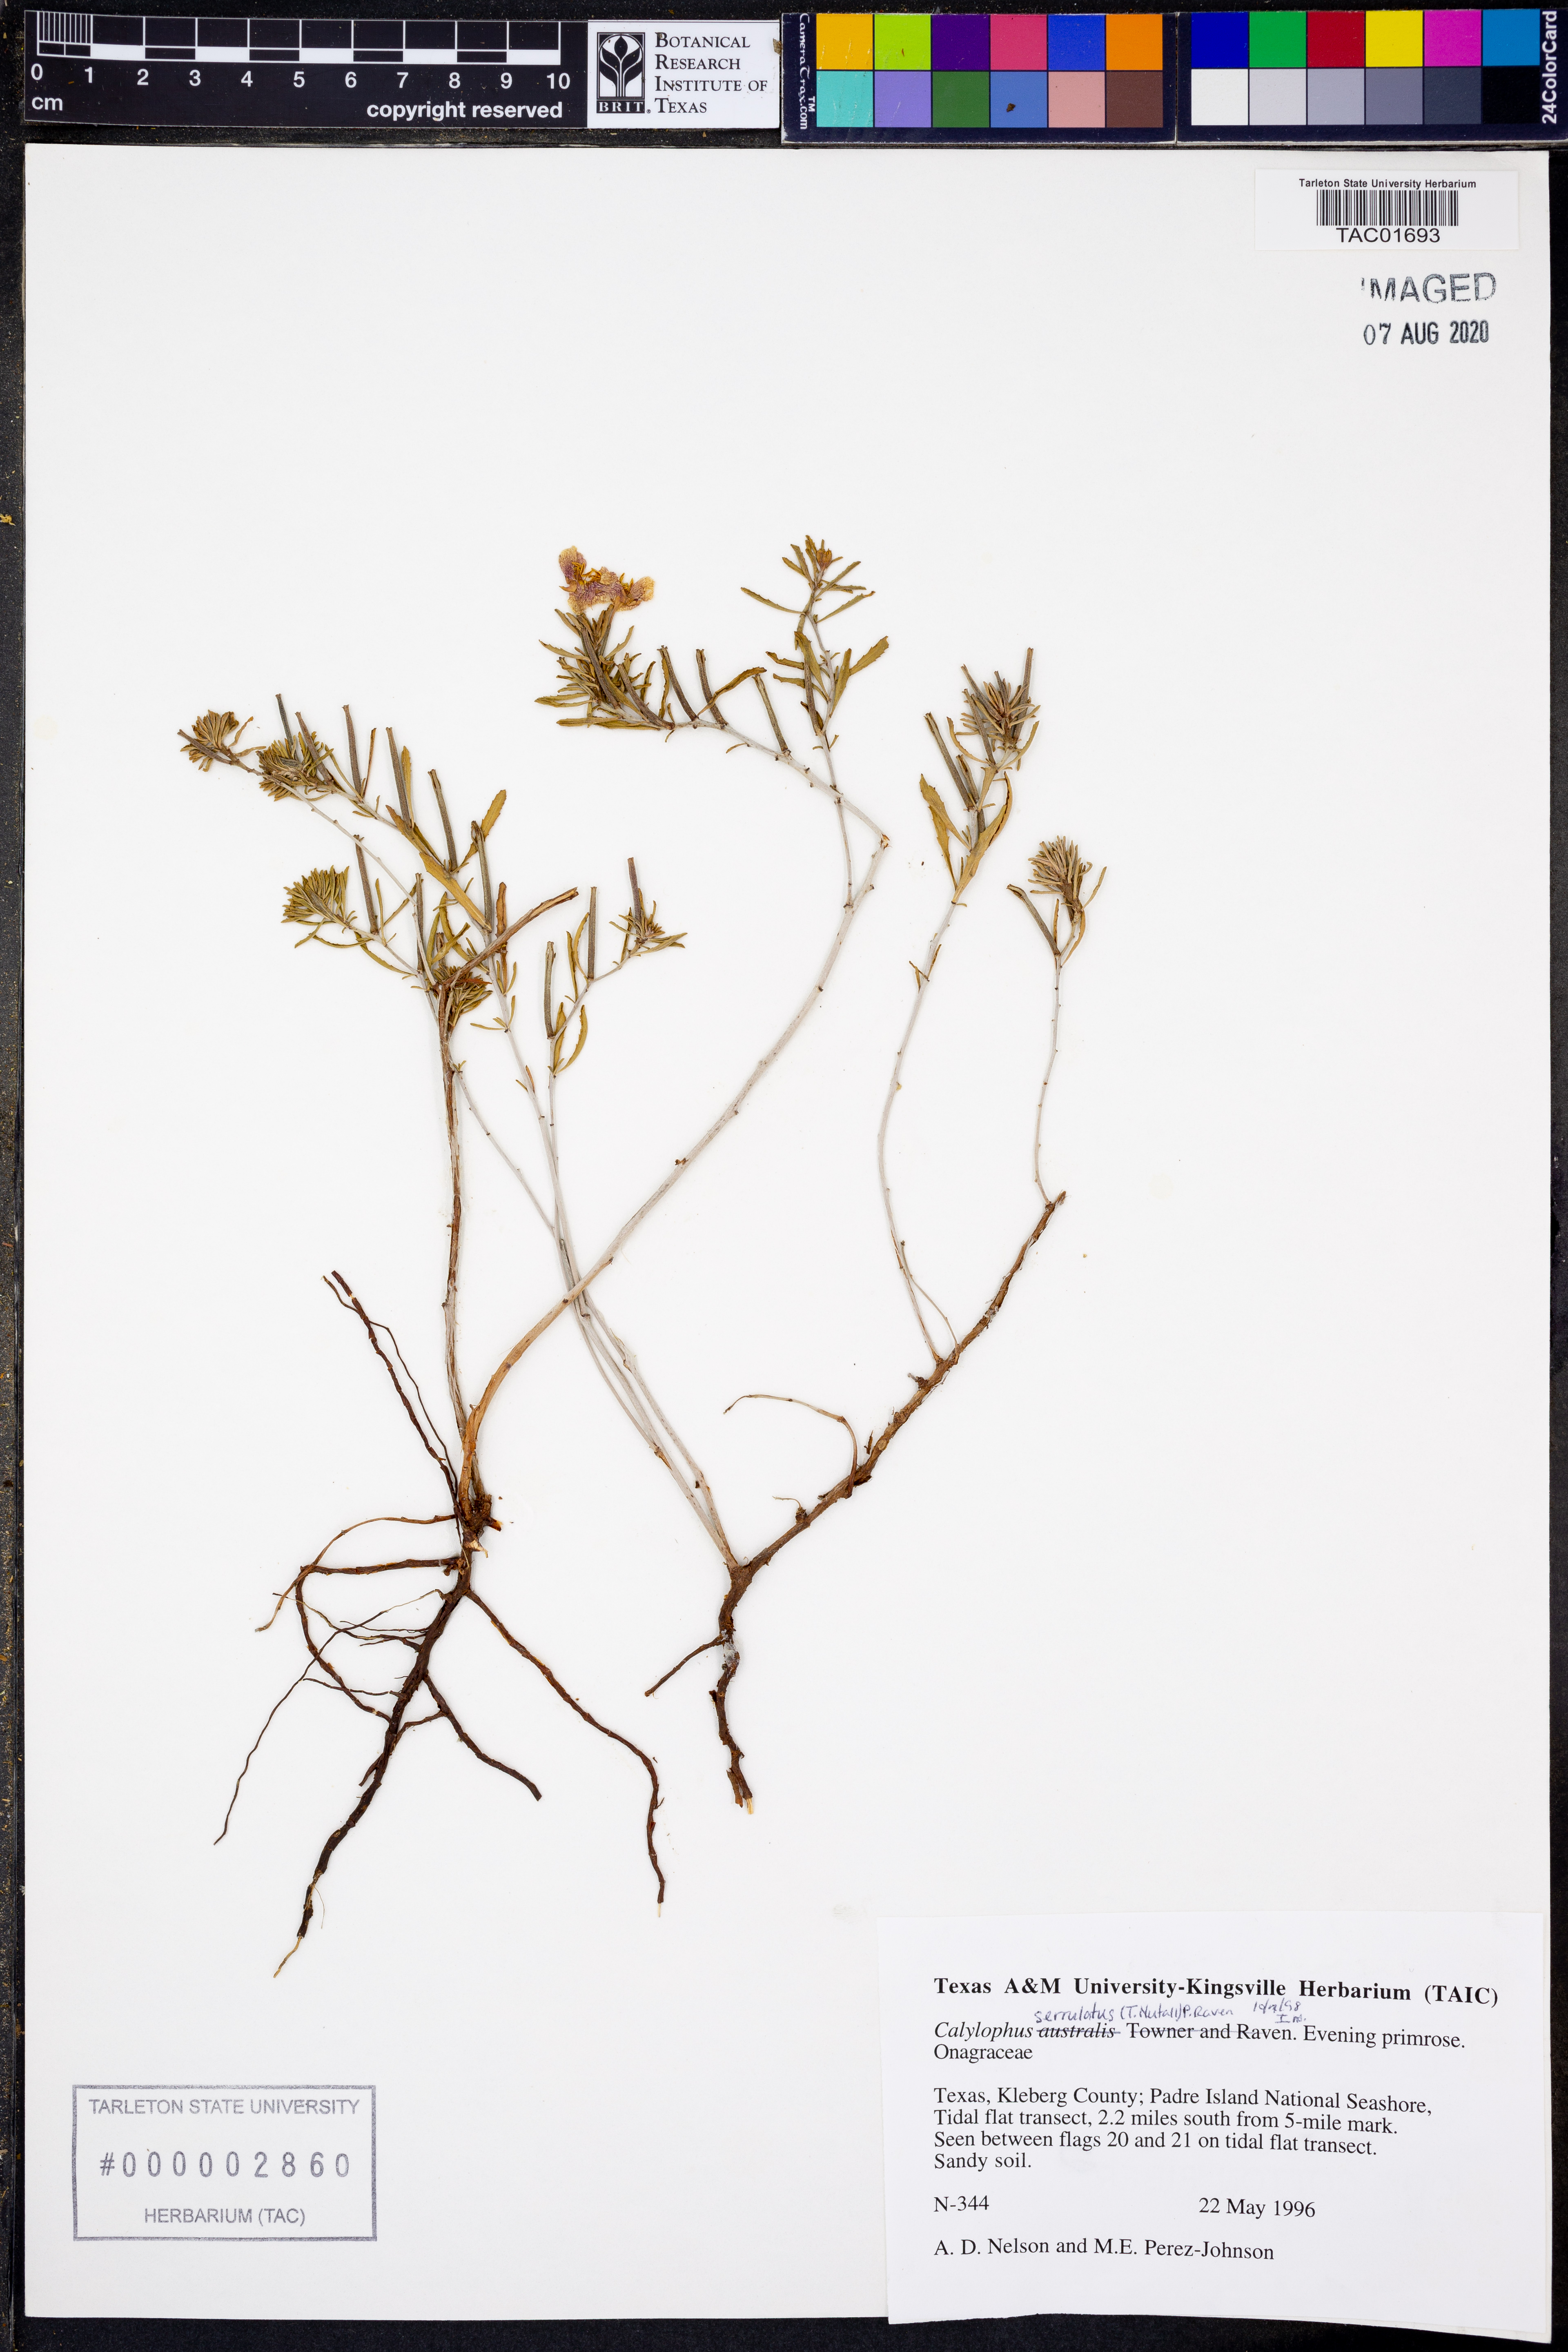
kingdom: Plantae
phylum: Tracheophyta
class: Magnoliopsida
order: Myrtales
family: Onagraceae
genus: Oenothera
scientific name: Oenothera serrulata
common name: Half-shrub calylophus
